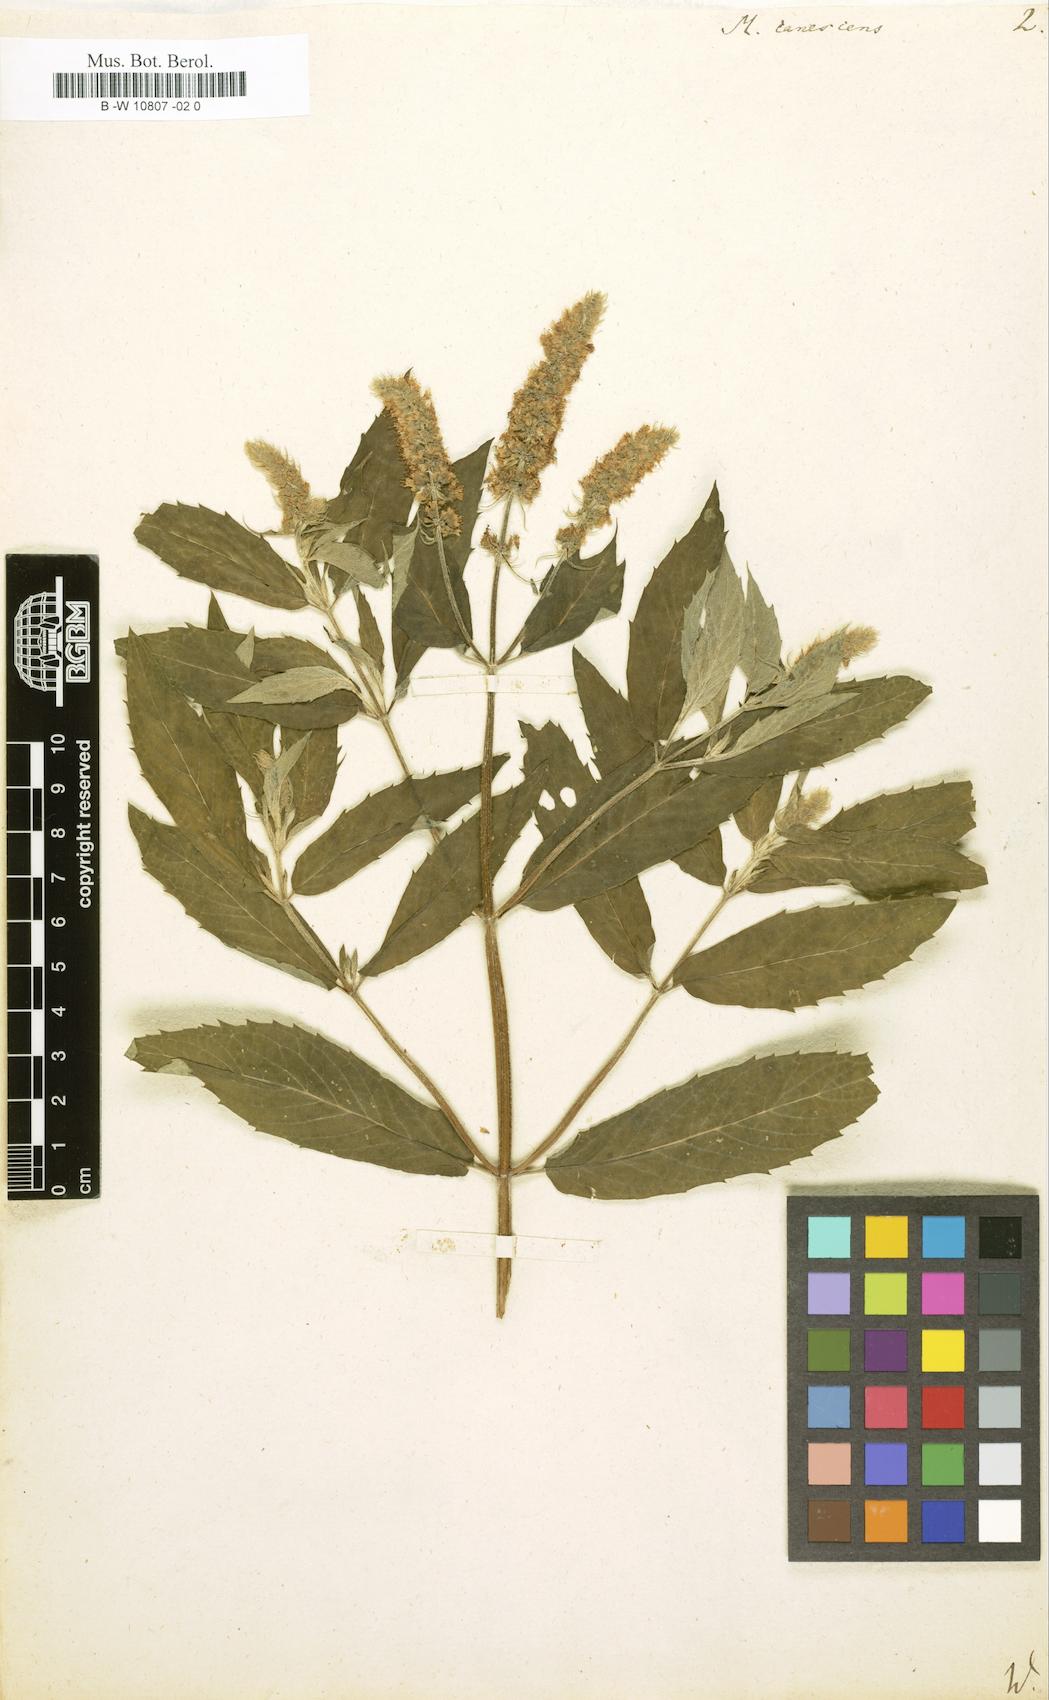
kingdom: Plantae
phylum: Tracheophyta
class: Magnoliopsida
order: Lamiales
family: Lamiaceae
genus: Mentha
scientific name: Mentha longifolia
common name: Horse mint
